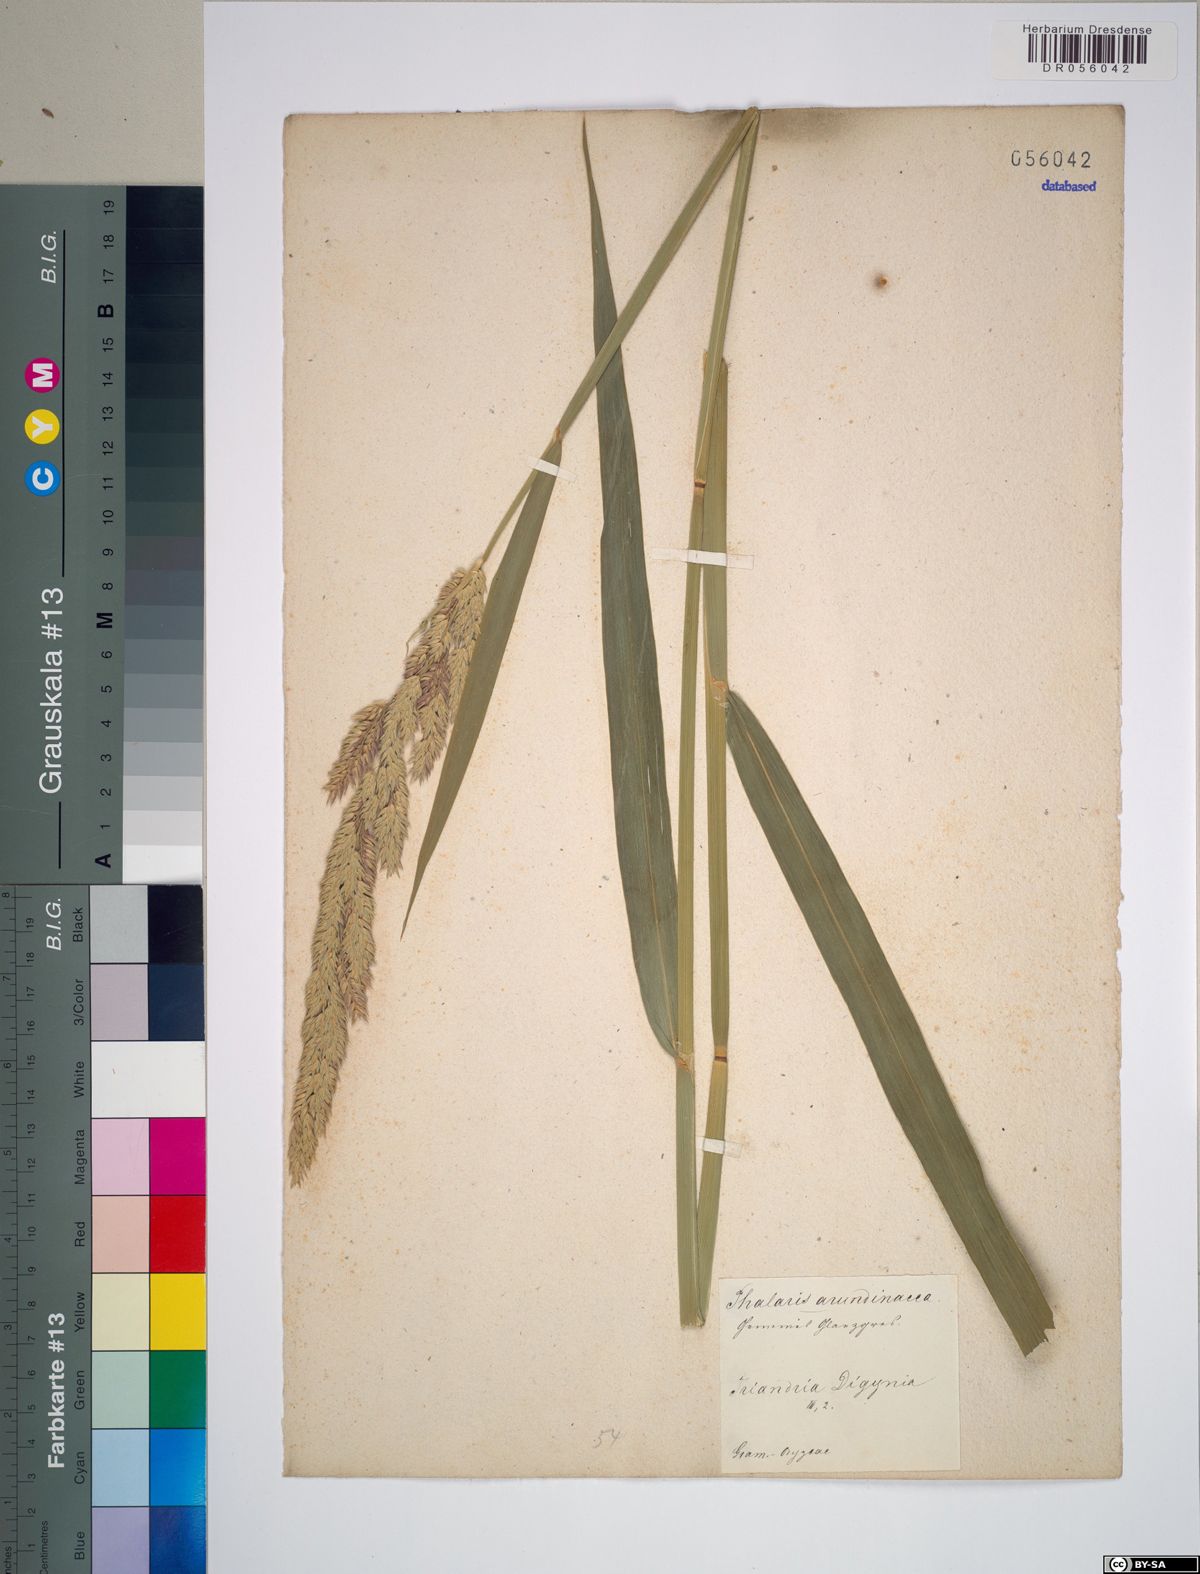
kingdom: Plantae
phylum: Tracheophyta
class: Liliopsida
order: Poales
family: Poaceae
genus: Phalaris
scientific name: Phalaris arundinacea
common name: Reed canary-grass
